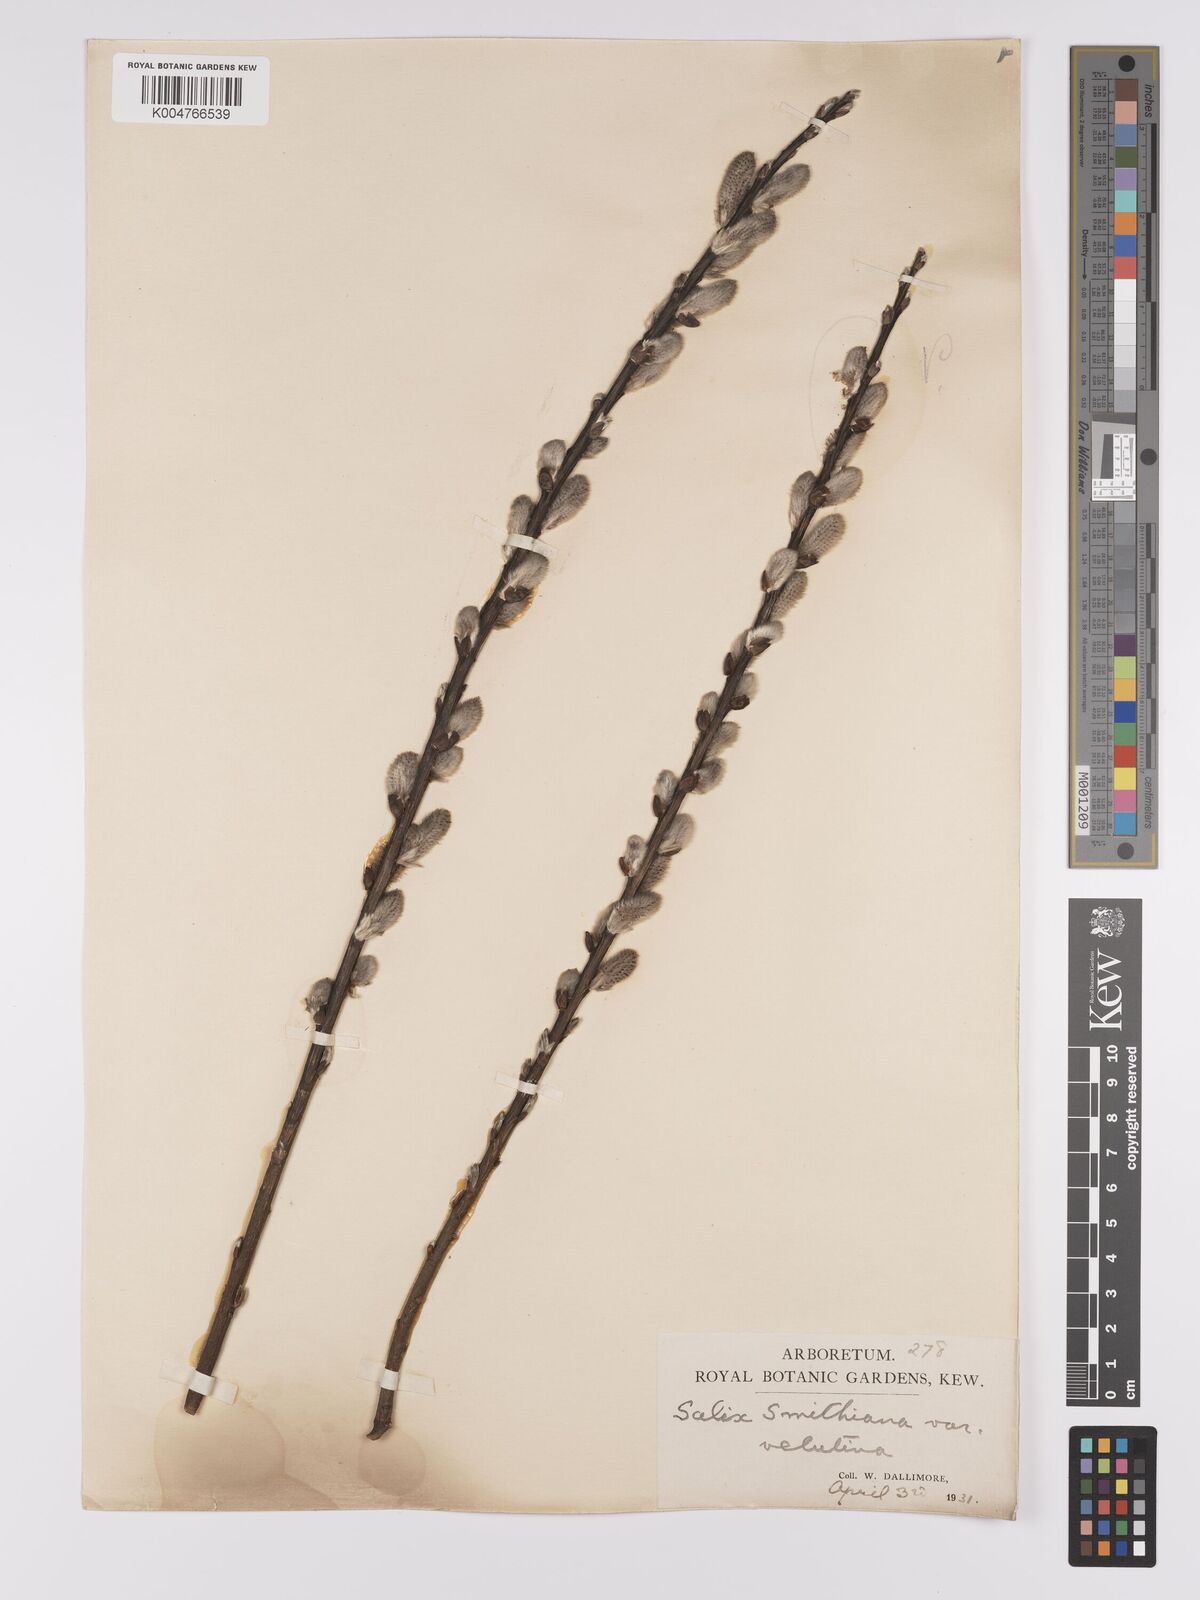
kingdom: Plantae
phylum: Tracheophyta
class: Magnoliopsida
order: Malpighiales
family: Salicaceae
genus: Salix
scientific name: Salix caprea
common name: Goat willow
